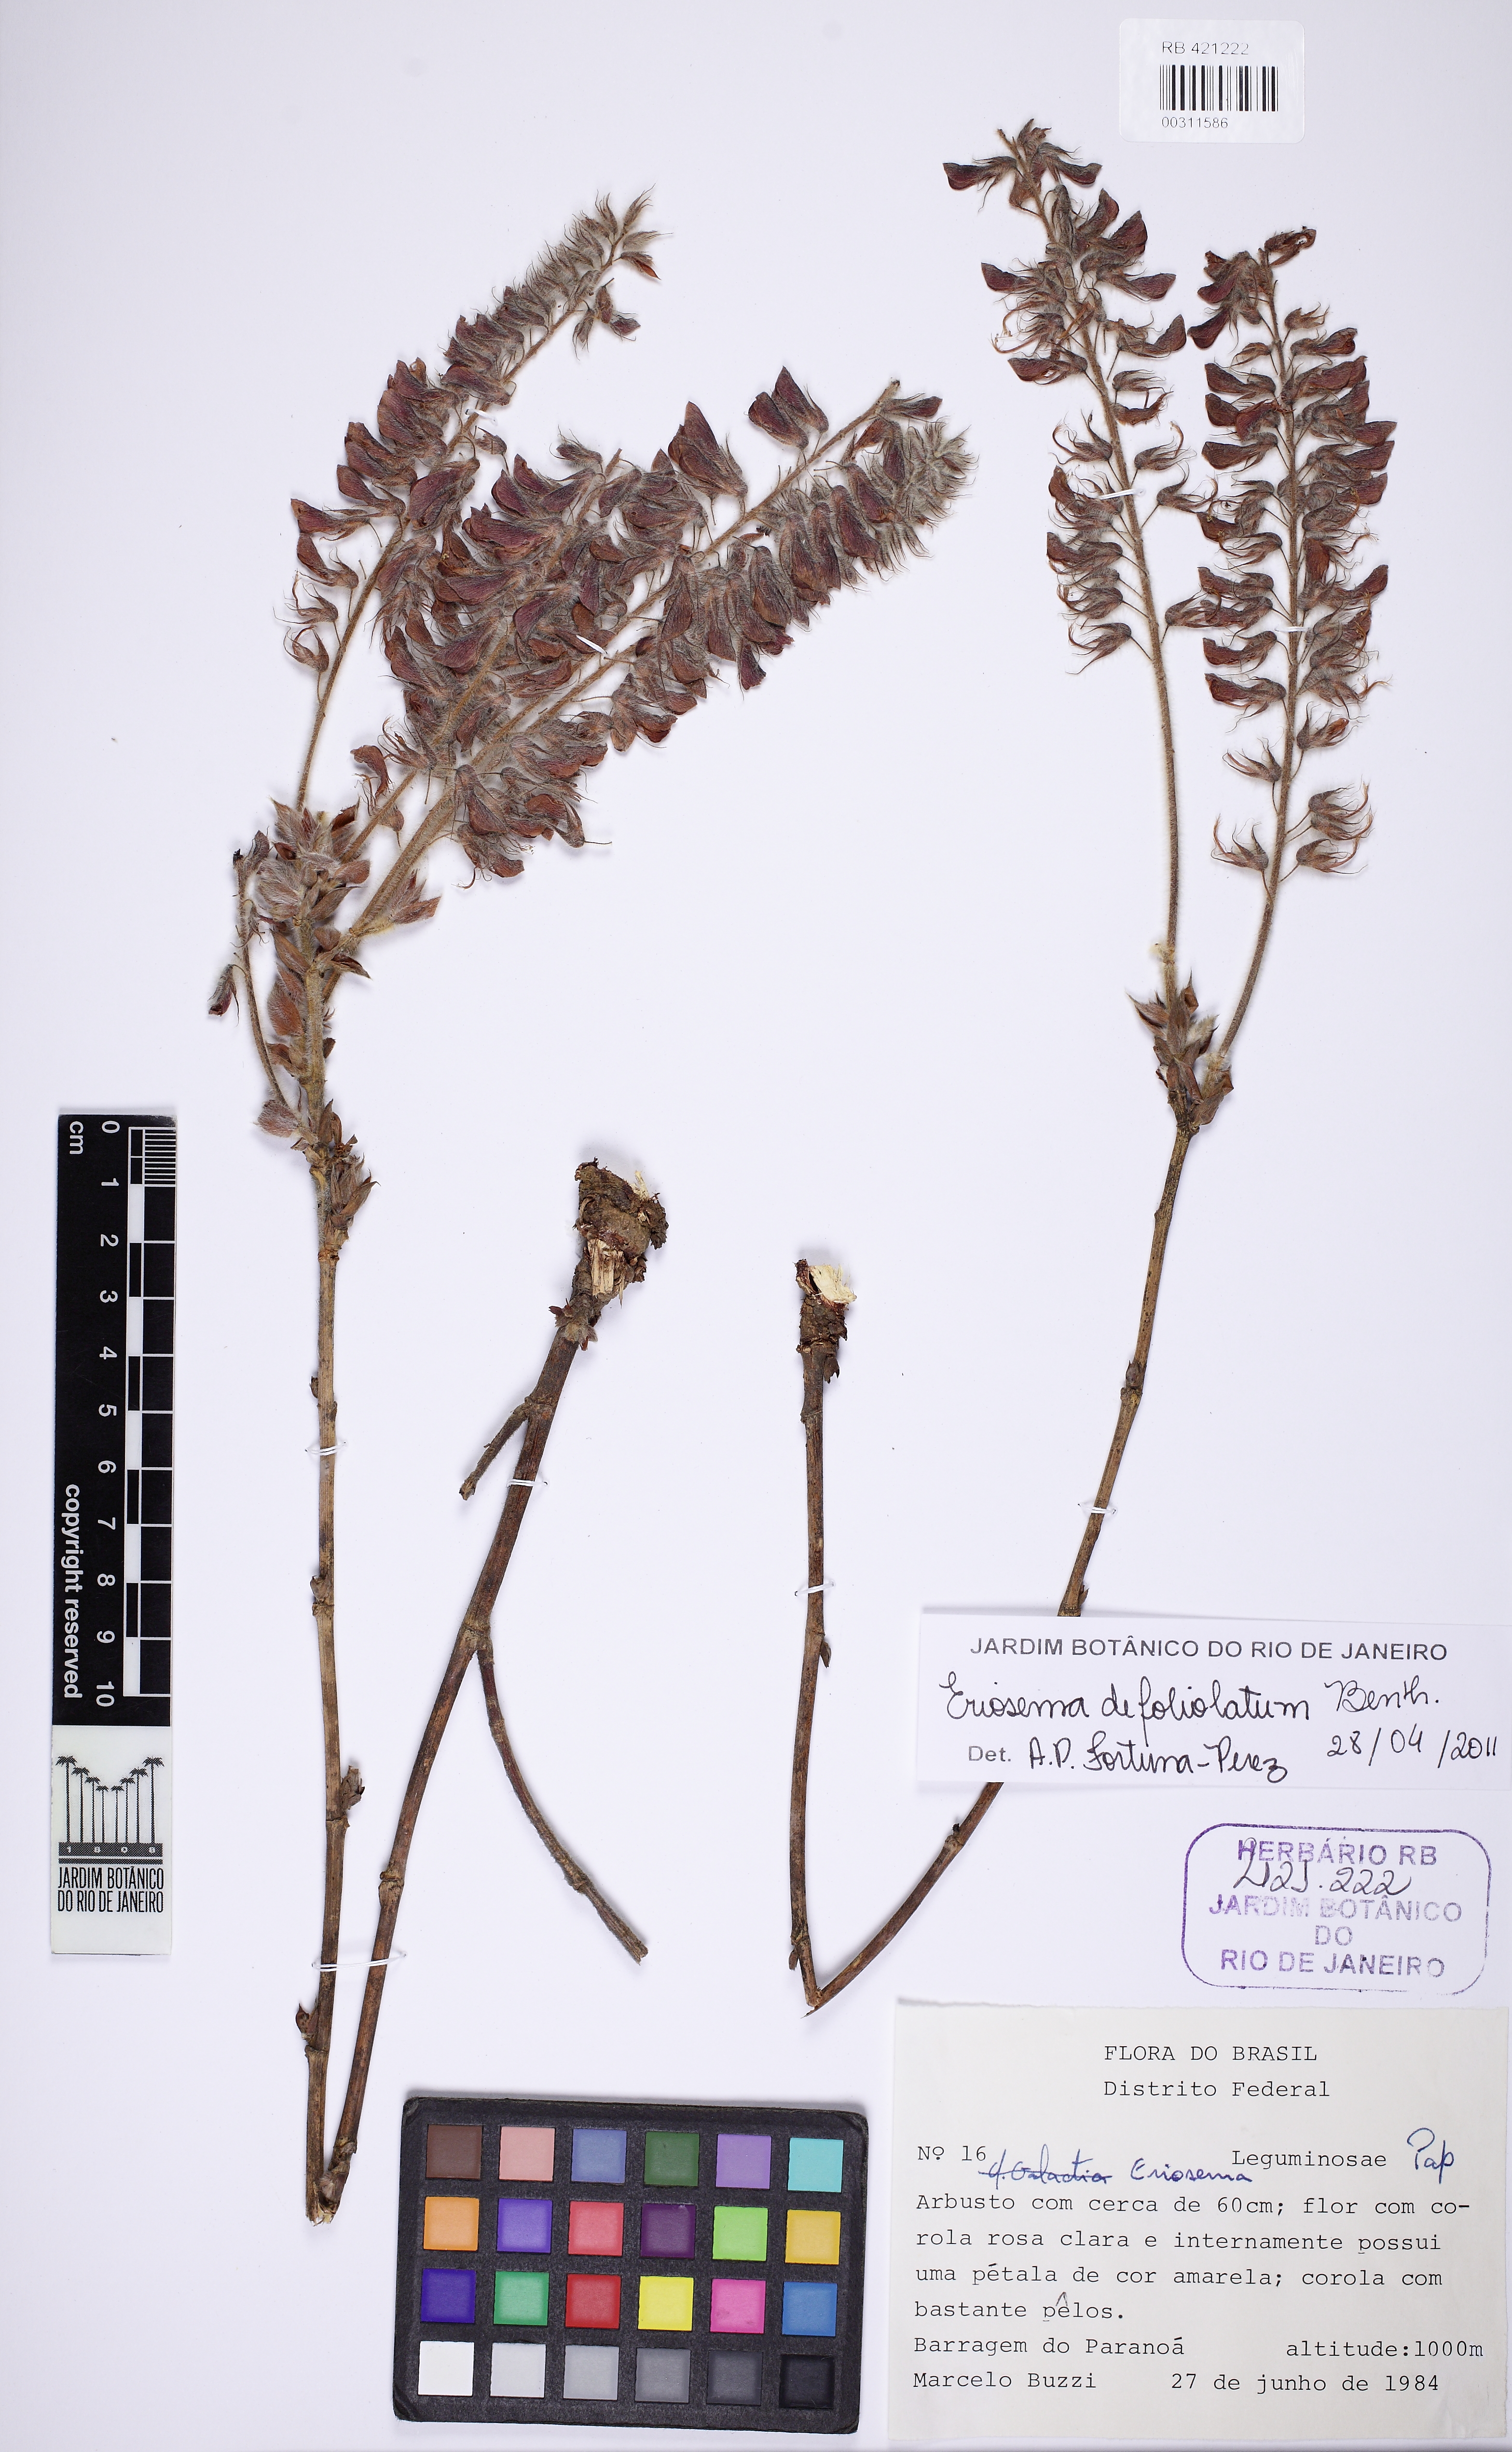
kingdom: Plantae
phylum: Tracheophyta
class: Magnoliopsida
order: Fabales
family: Fabaceae
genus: Eriosema
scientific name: Eriosema defoliatum
